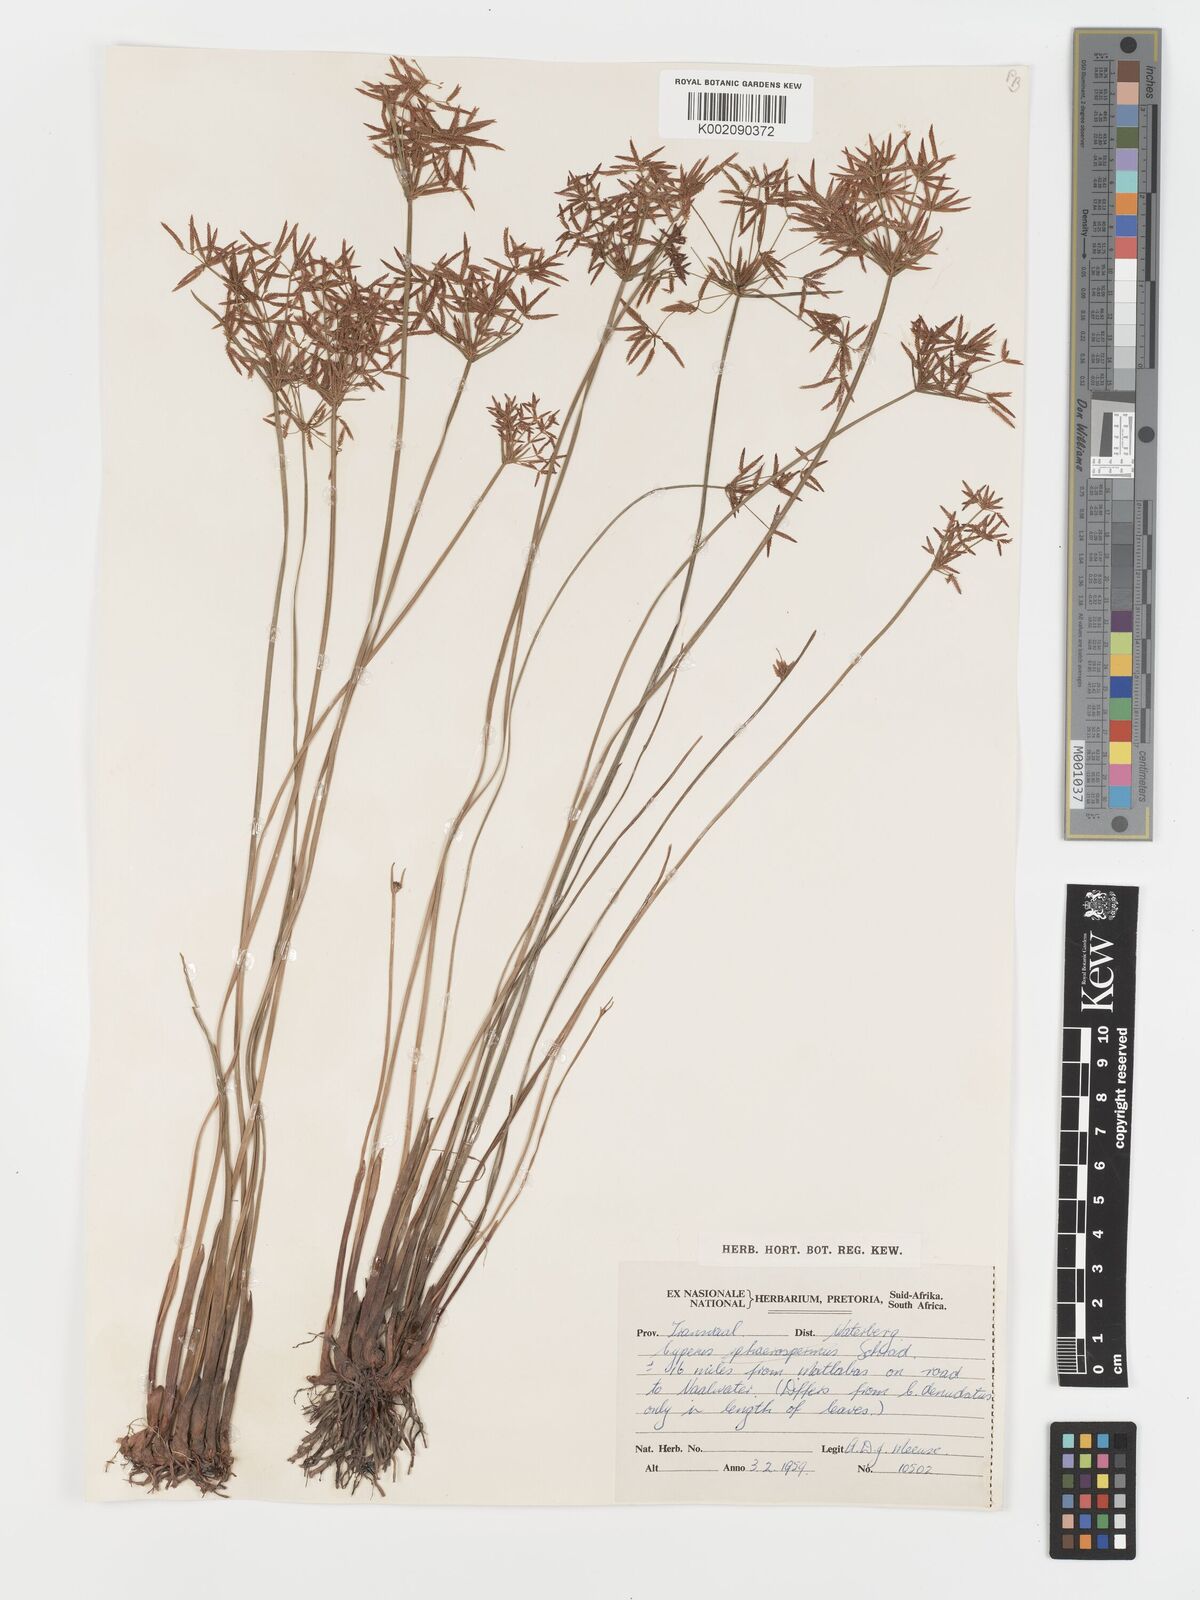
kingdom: Plantae
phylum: Tracheophyta
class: Liliopsida
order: Poales
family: Cyperaceae
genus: Cyperus
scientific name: Cyperus haspan
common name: Haspan flatsedge
